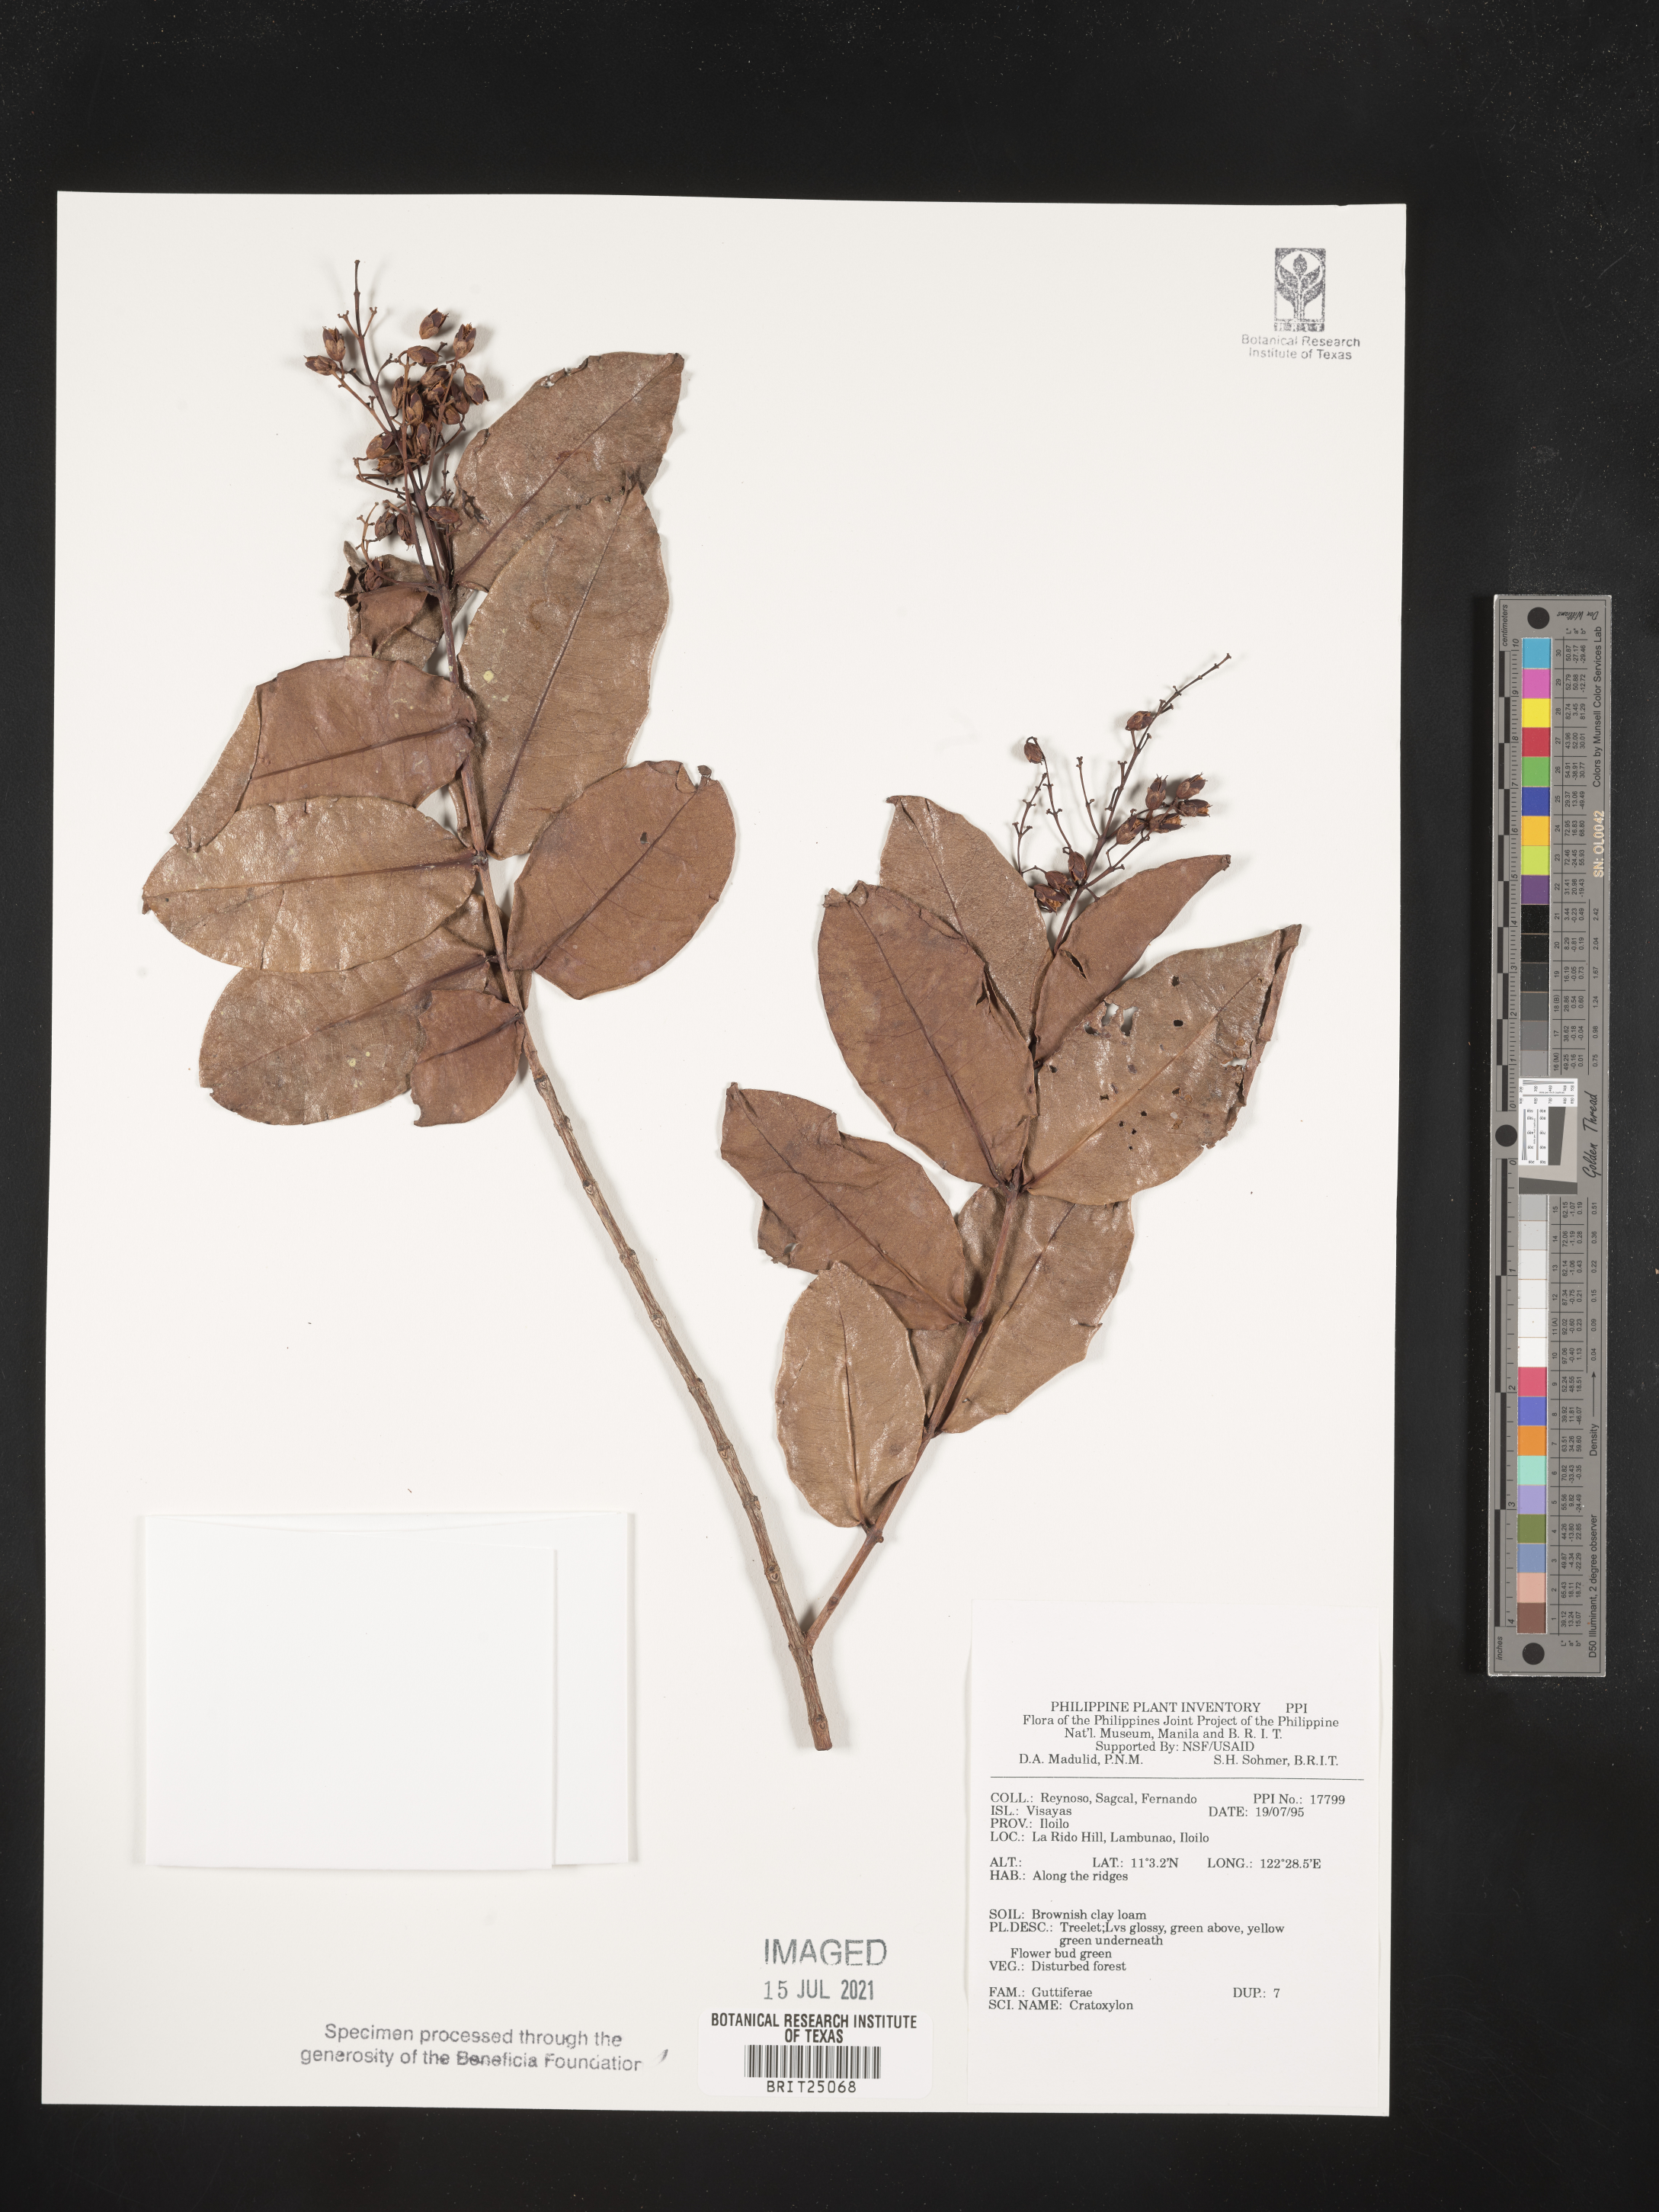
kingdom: Plantae
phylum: Tracheophyta
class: Magnoliopsida
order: Malpighiales
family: Hypericaceae
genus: Cratoxylum
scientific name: Cratoxylum
